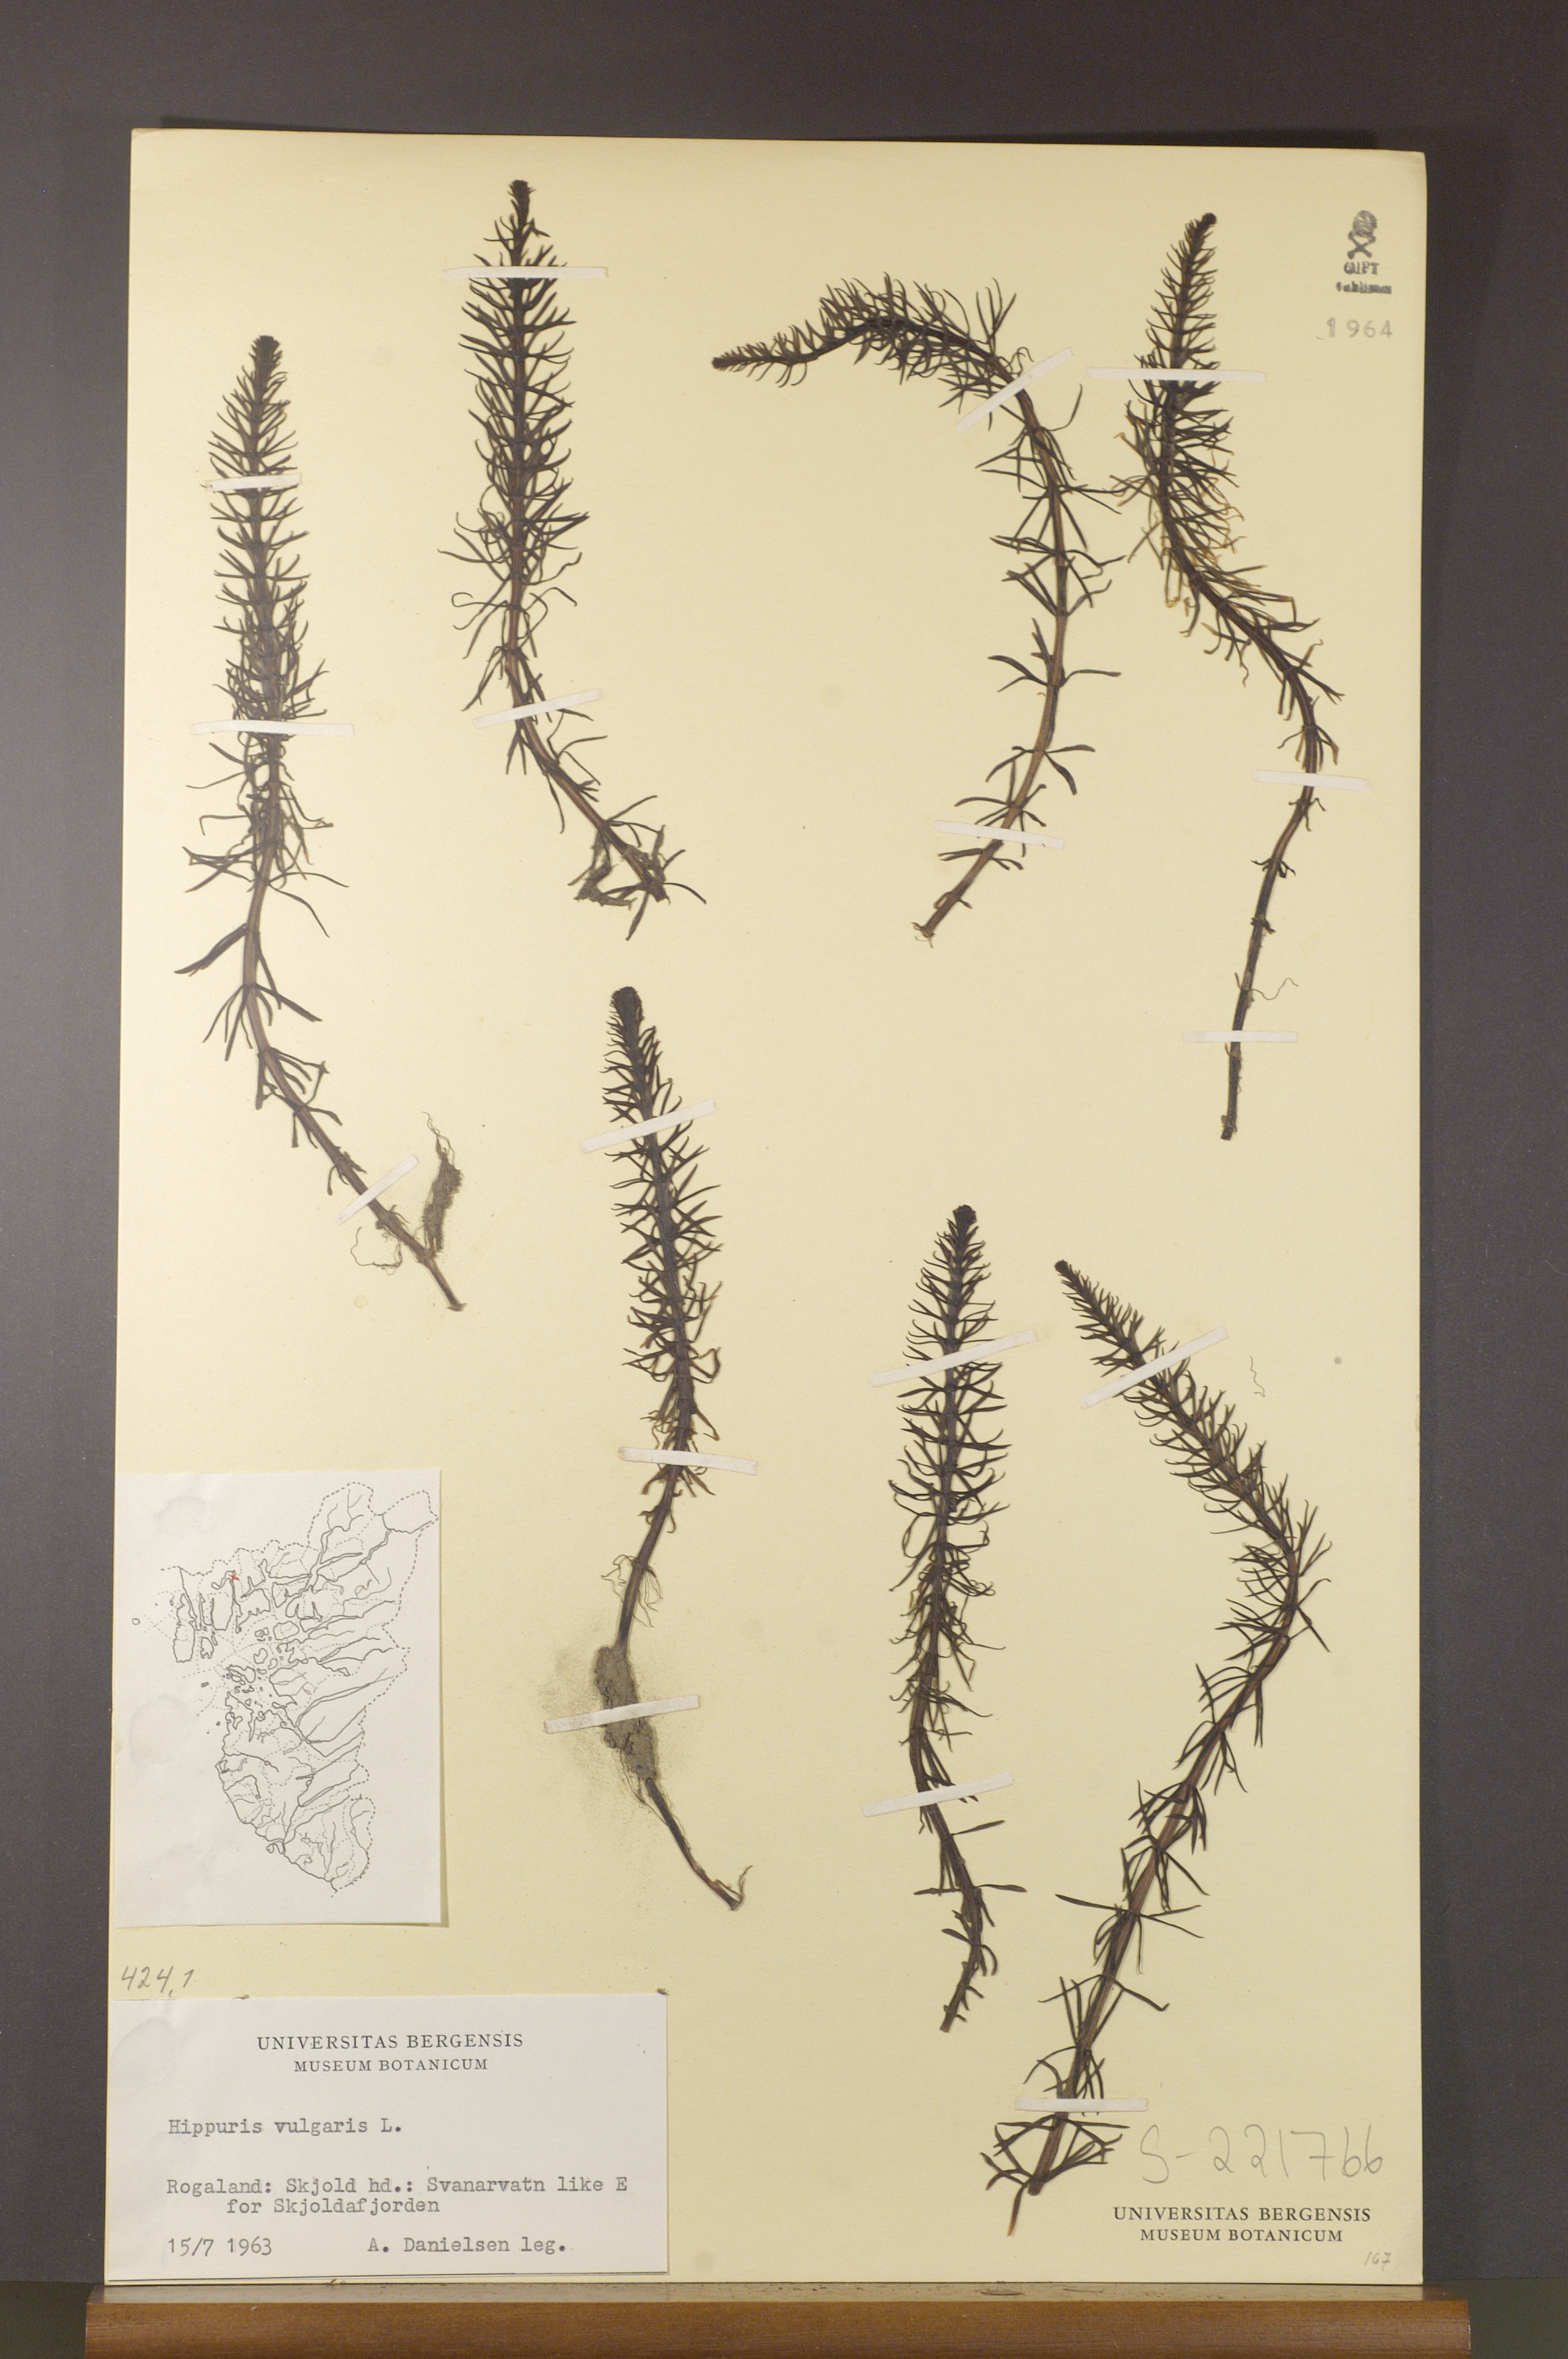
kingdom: Plantae
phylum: Tracheophyta
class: Magnoliopsida
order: Lamiales
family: Plantaginaceae
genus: Hippuris
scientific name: Hippuris vulgaris
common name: Mare's-tail
